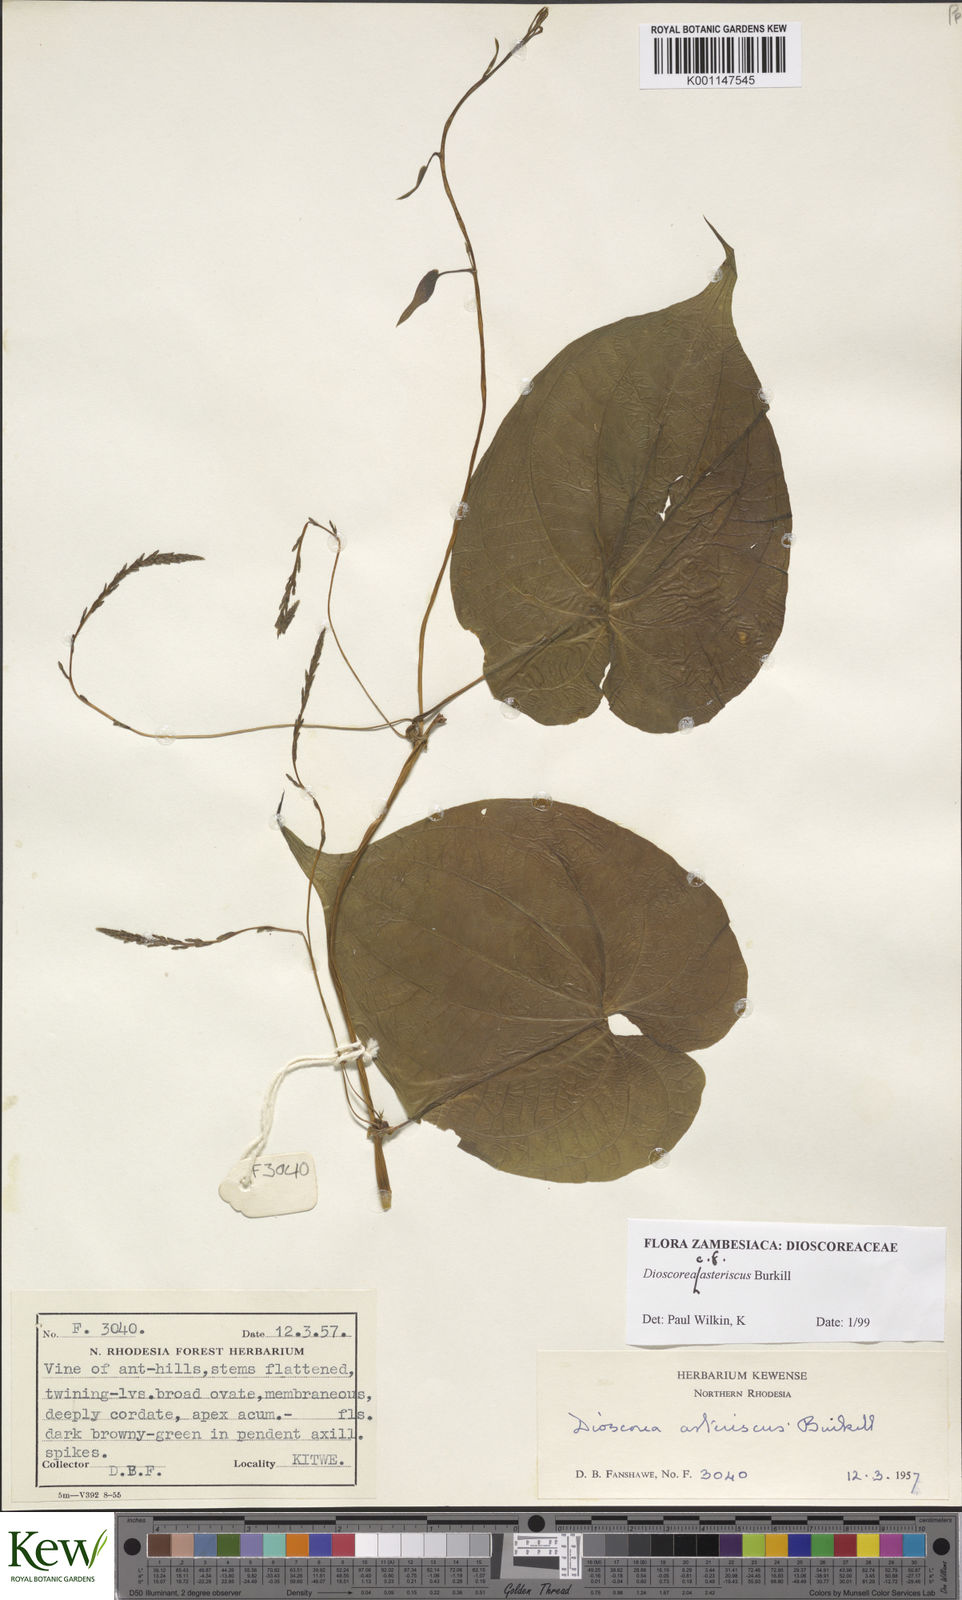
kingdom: Plantae
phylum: Tracheophyta
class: Liliopsida
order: Dioscoreales
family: Dioscoreaceae
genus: Dioscorea
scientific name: Dioscorea asteriscus
